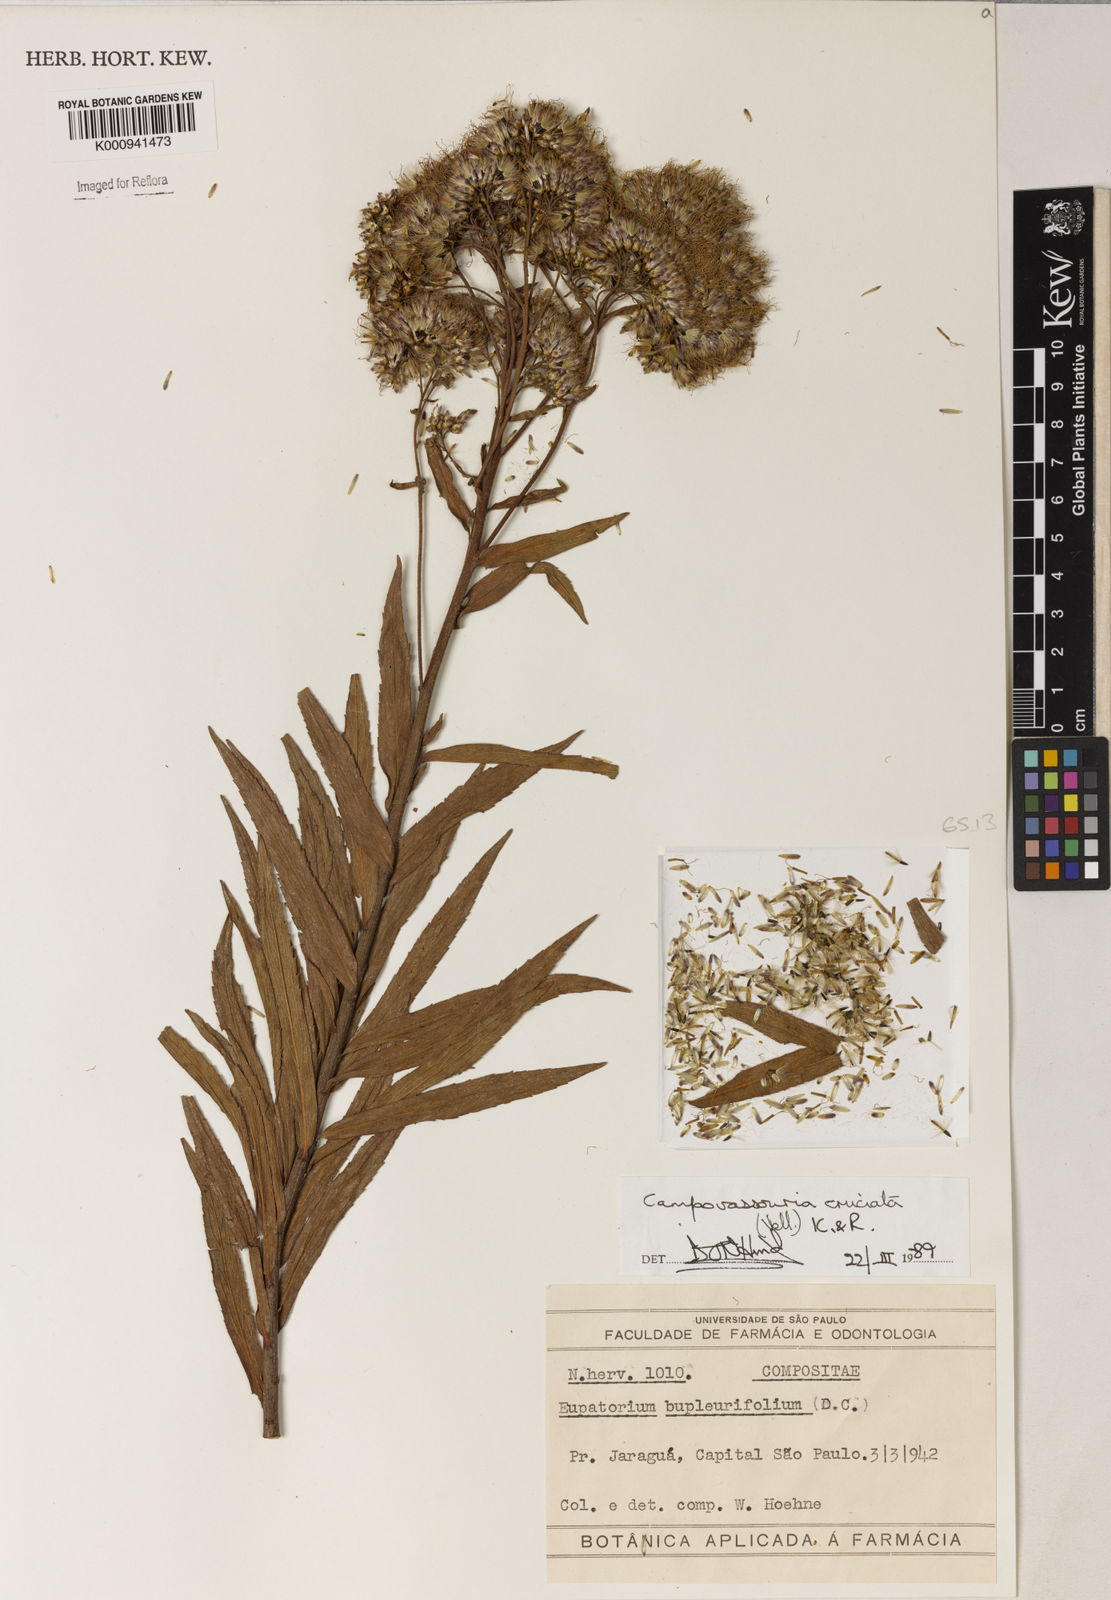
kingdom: Plantae
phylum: Tracheophyta
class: Magnoliopsida
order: Asterales
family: Asteraceae
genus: Campovassouria
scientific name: Campovassouria cruciata
